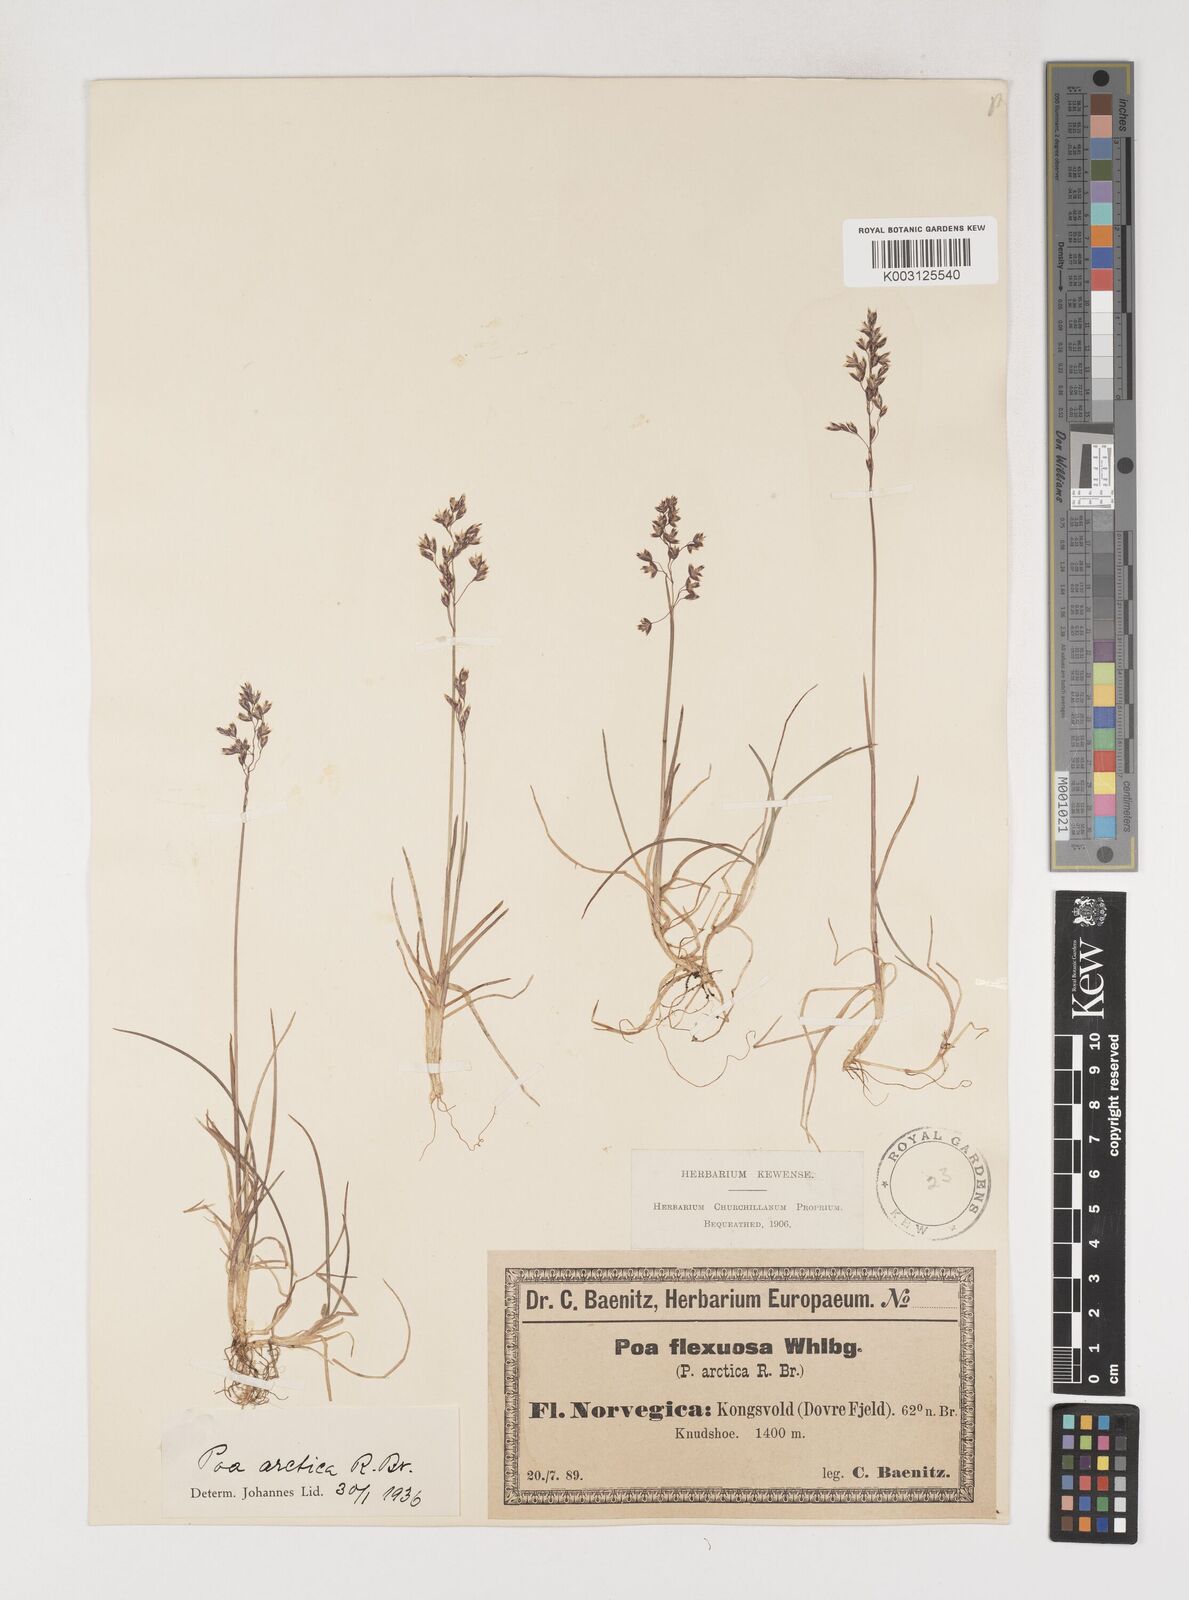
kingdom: Plantae
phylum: Tracheophyta
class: Liliopsida
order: Poales
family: Poaceae
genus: Poa
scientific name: Poa arctica
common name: Arctic bluegrass
